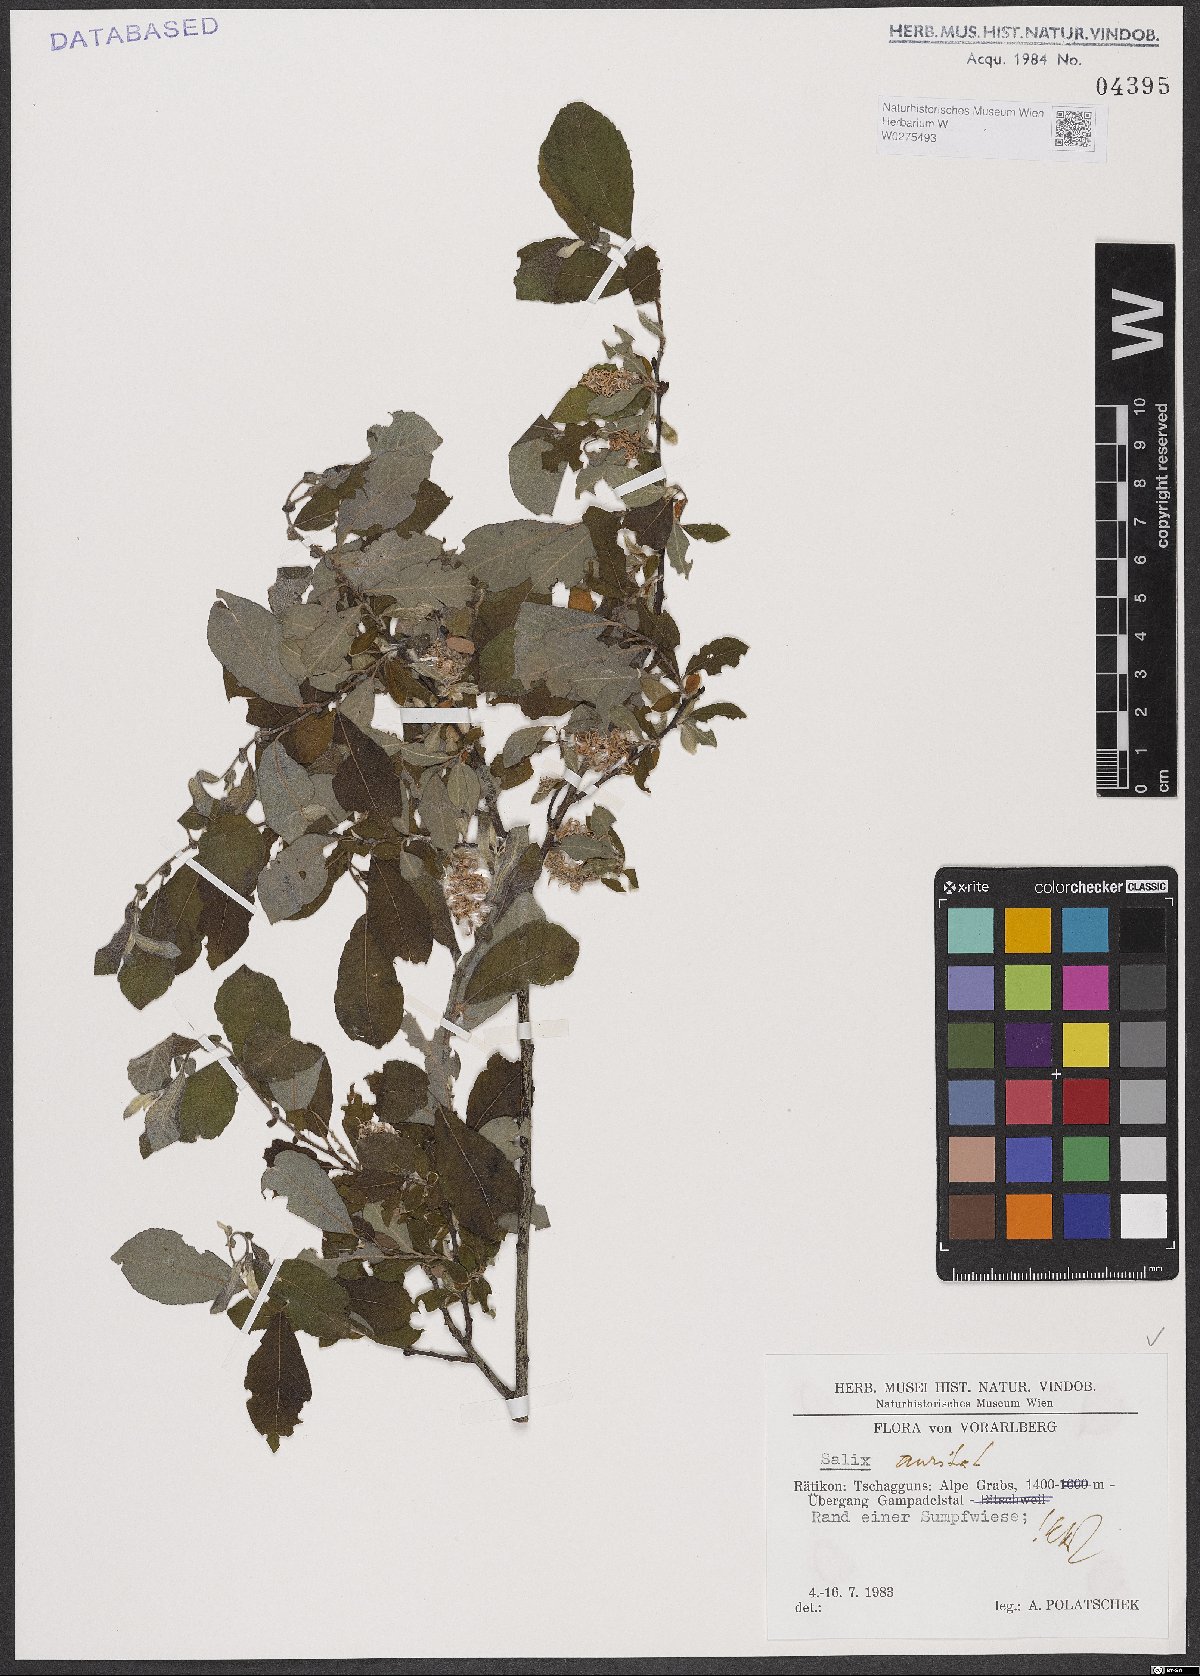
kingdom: Plantae
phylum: Tracheophyta
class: Magnoliopsida
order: Malpighiales
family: Salicaceae
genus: Salix
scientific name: Salix aurita
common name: Eared willow
